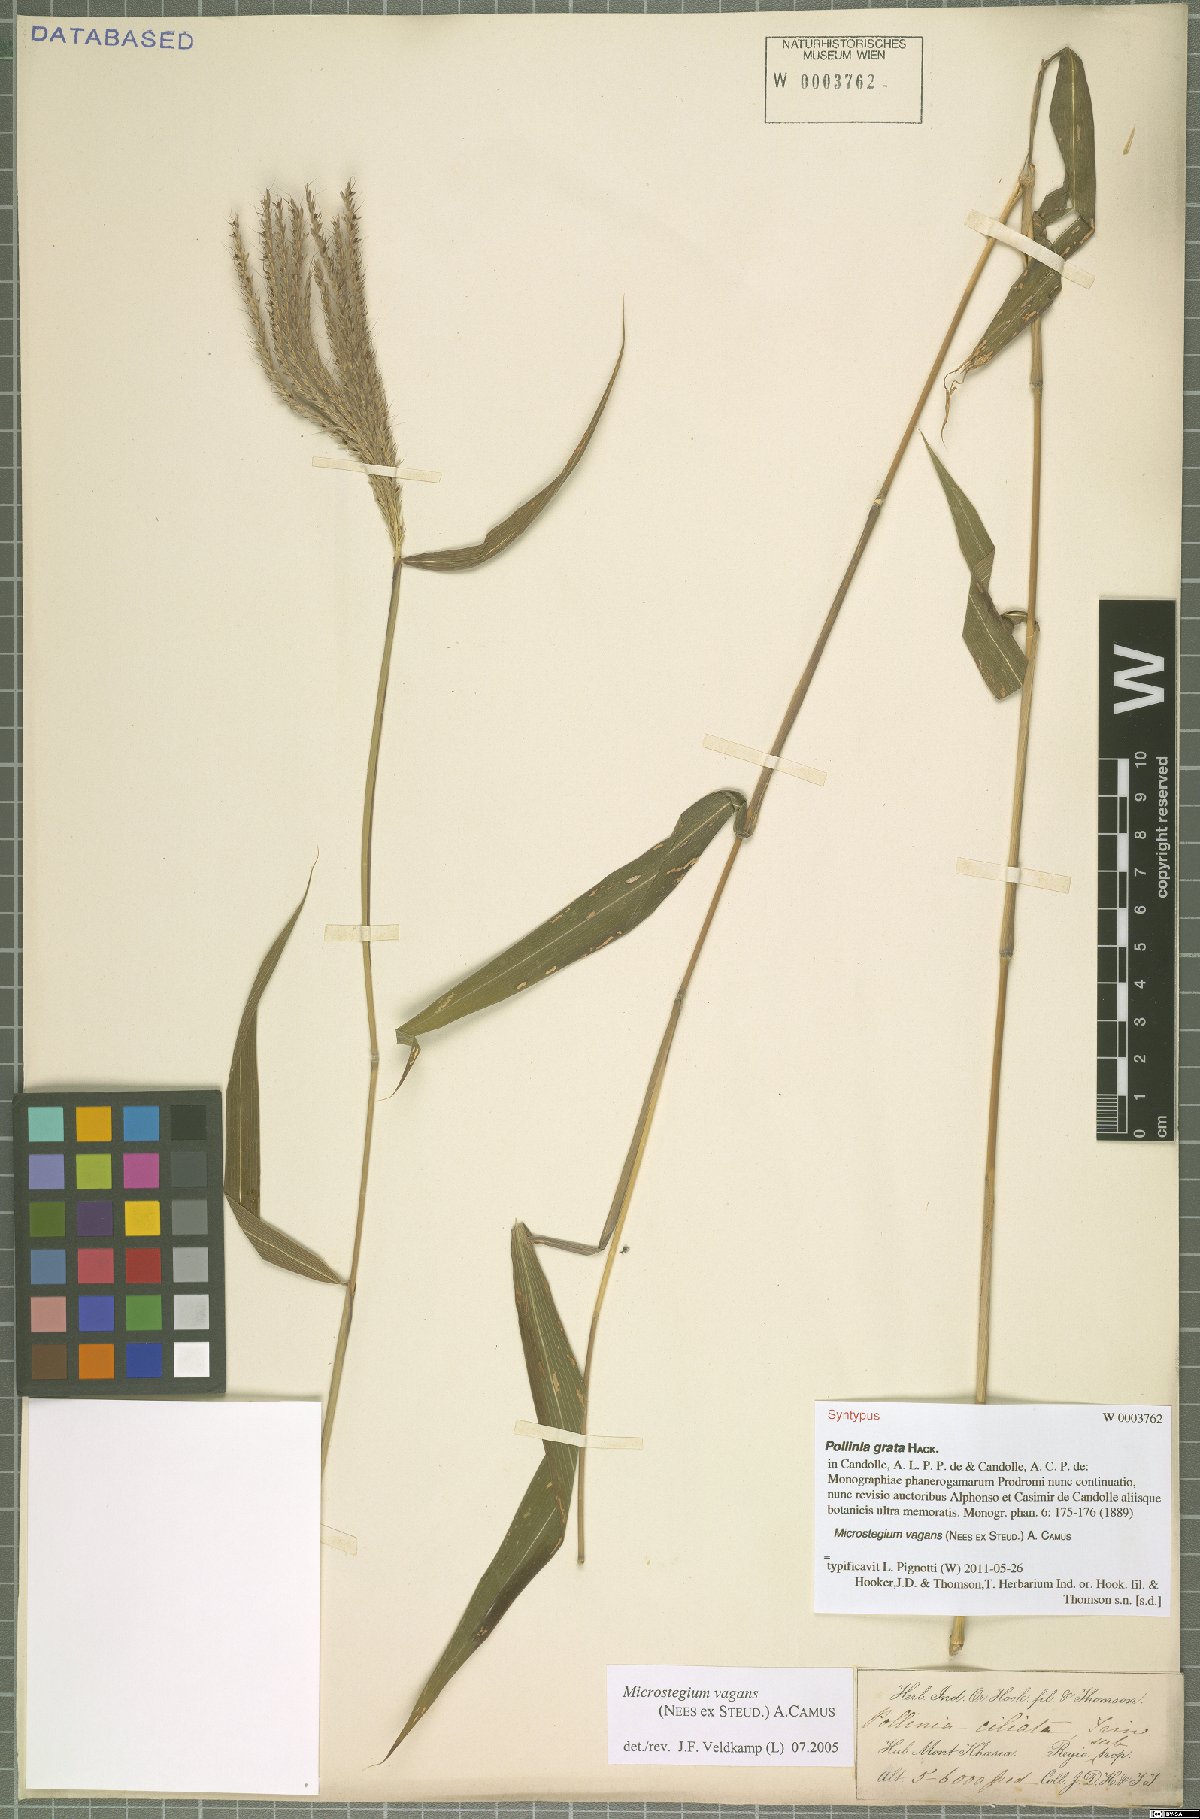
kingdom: Plantae
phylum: Tracheophyta
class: Liliopsida
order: Poales
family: Poaceae
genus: Microstegium
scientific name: Microstegium fasciculatum
